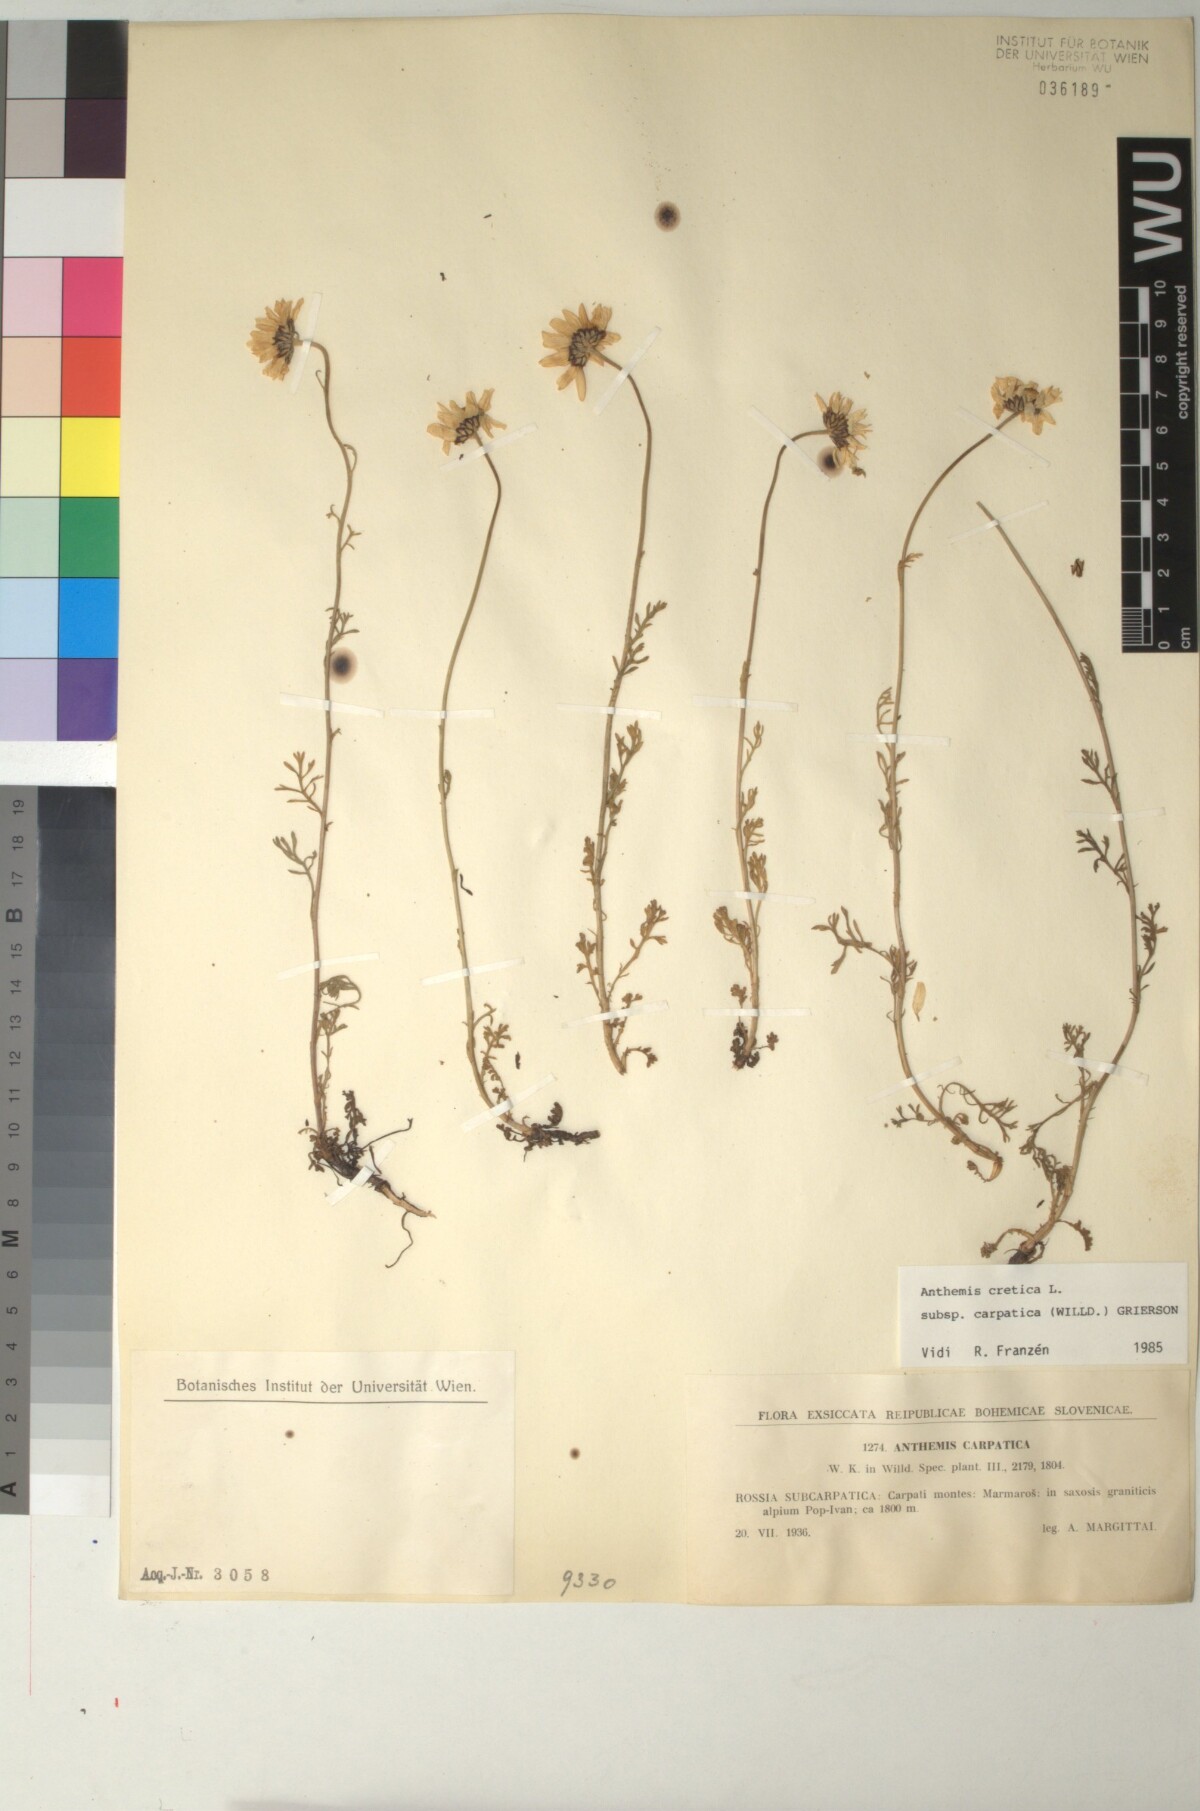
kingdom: Plantae
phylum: Tracheophyta
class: Magnoliopsida
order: Asterales
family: Asteraceae
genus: Anthemis
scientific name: Anthemis cretica
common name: Mountain dog-daisy
